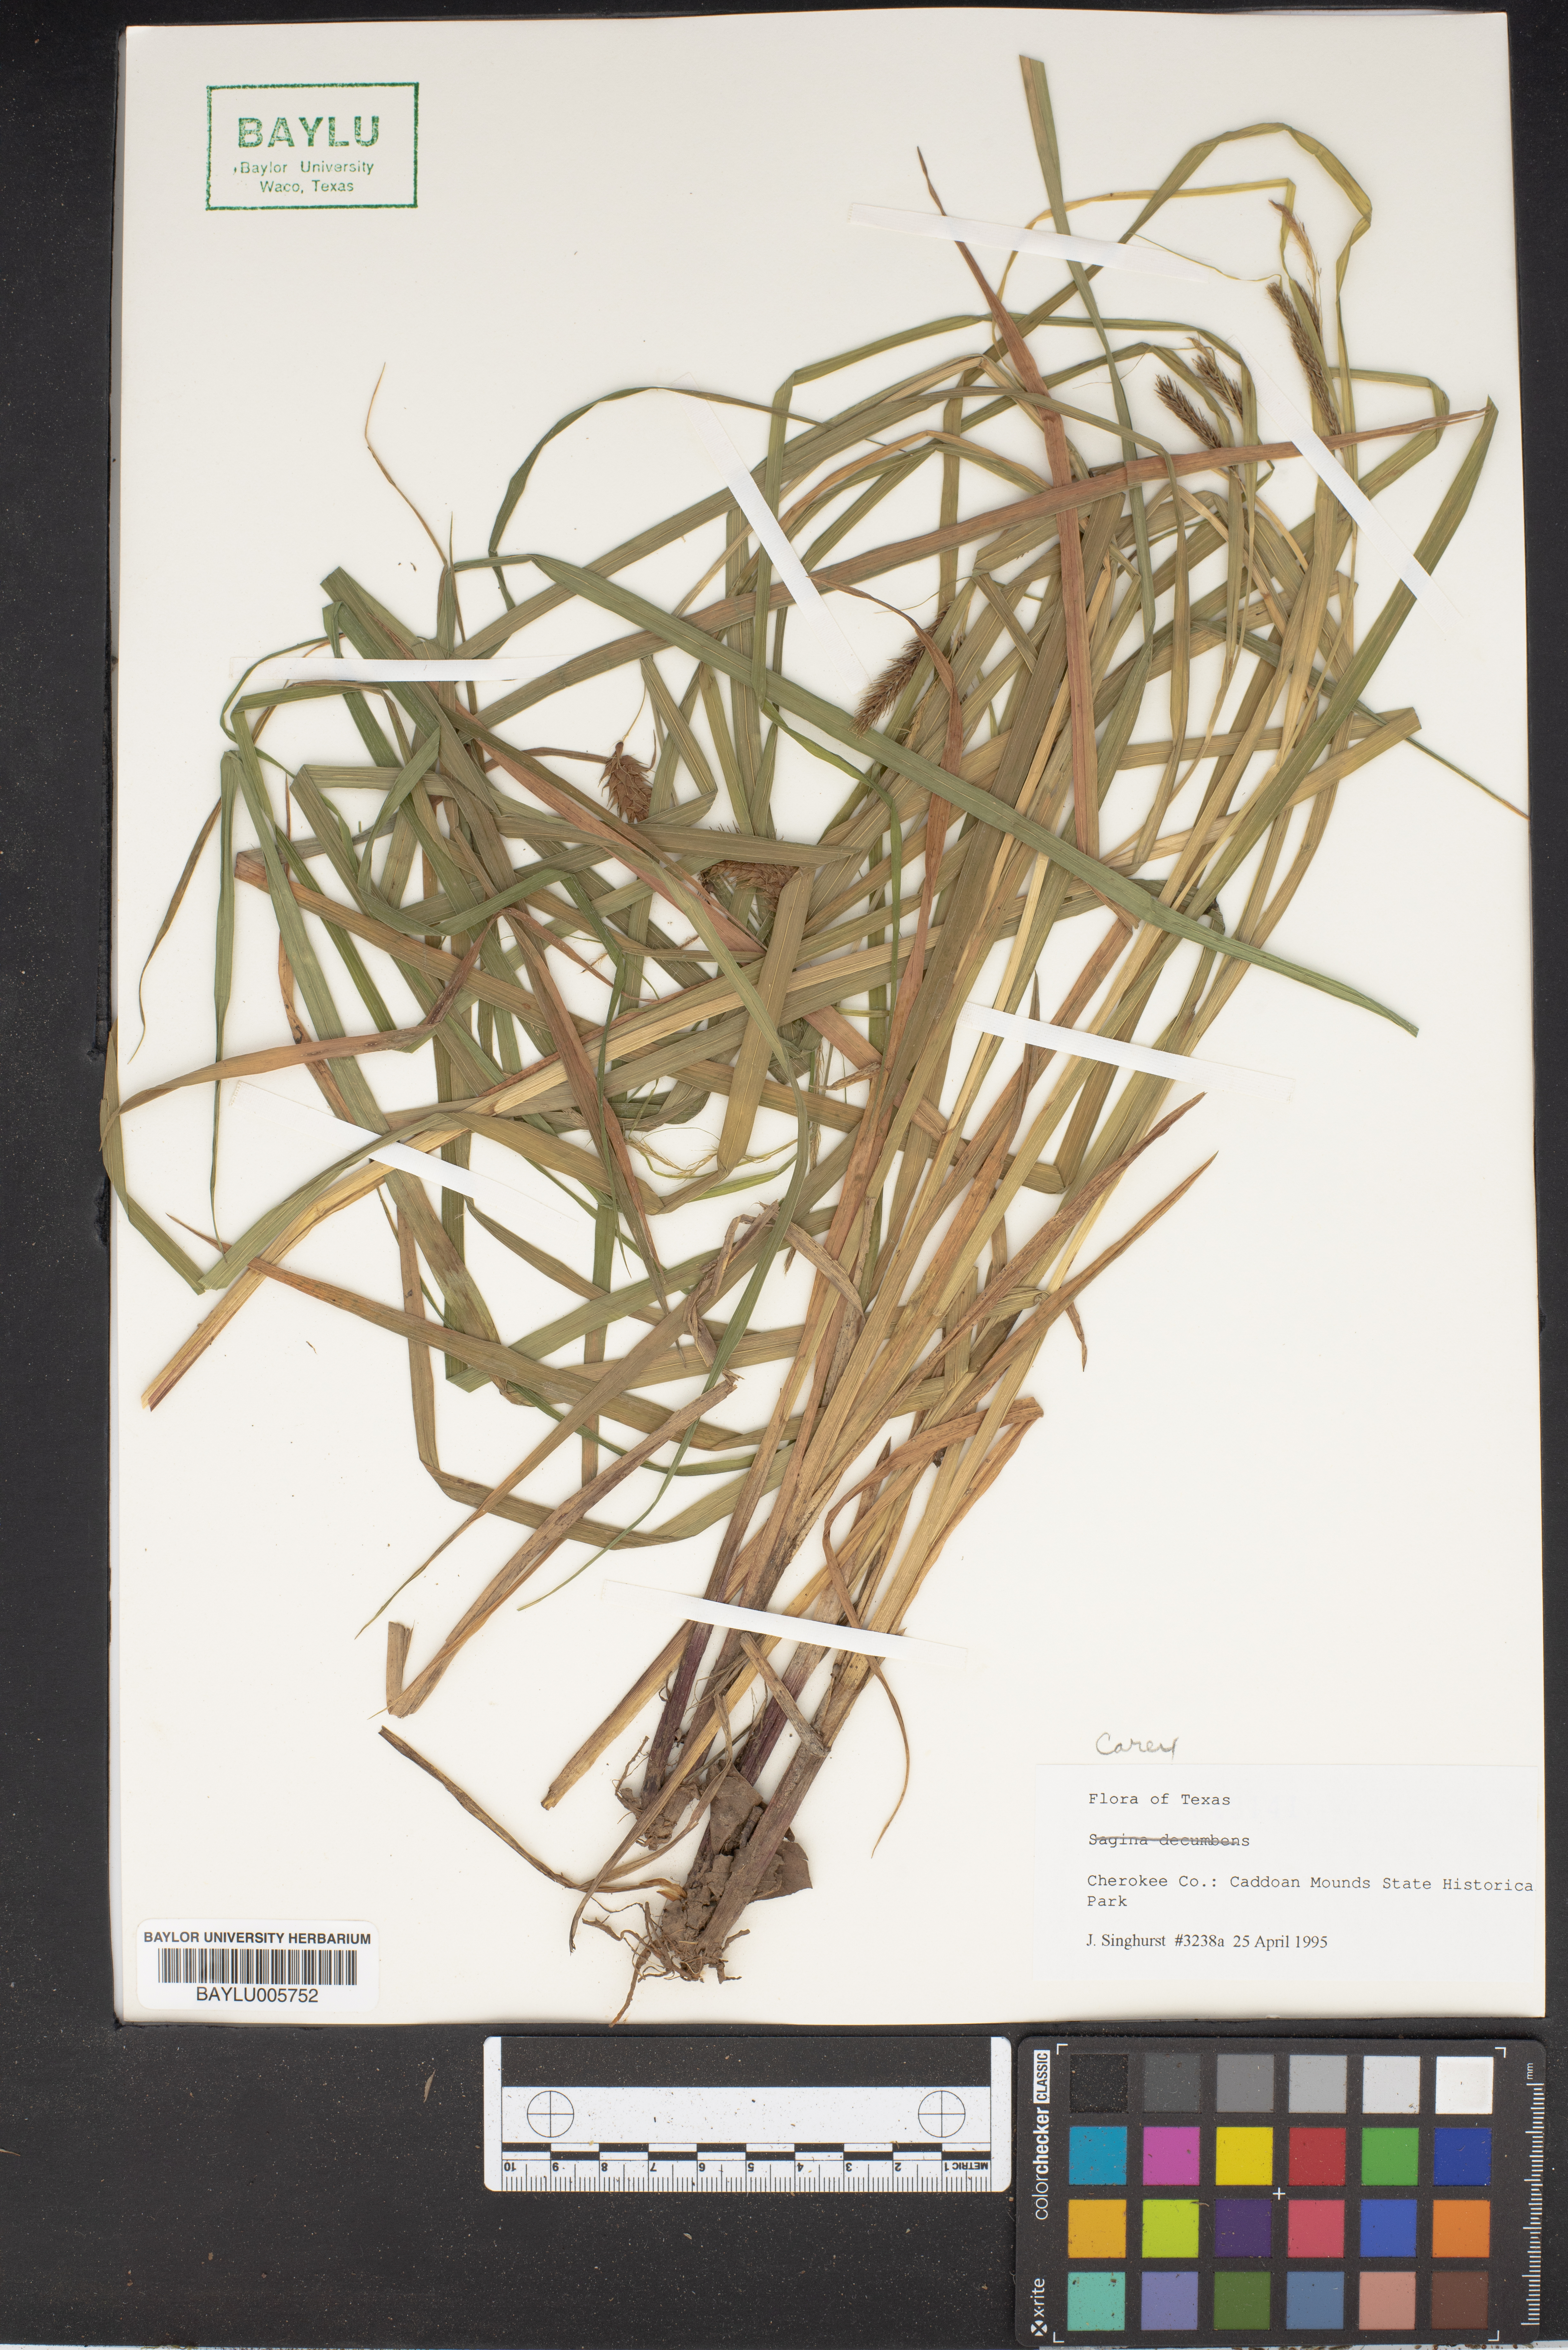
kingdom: Plantae
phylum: Tracheophyta
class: Liliopsida
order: Poales
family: Cyperaceae
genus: Carex
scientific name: Carex
